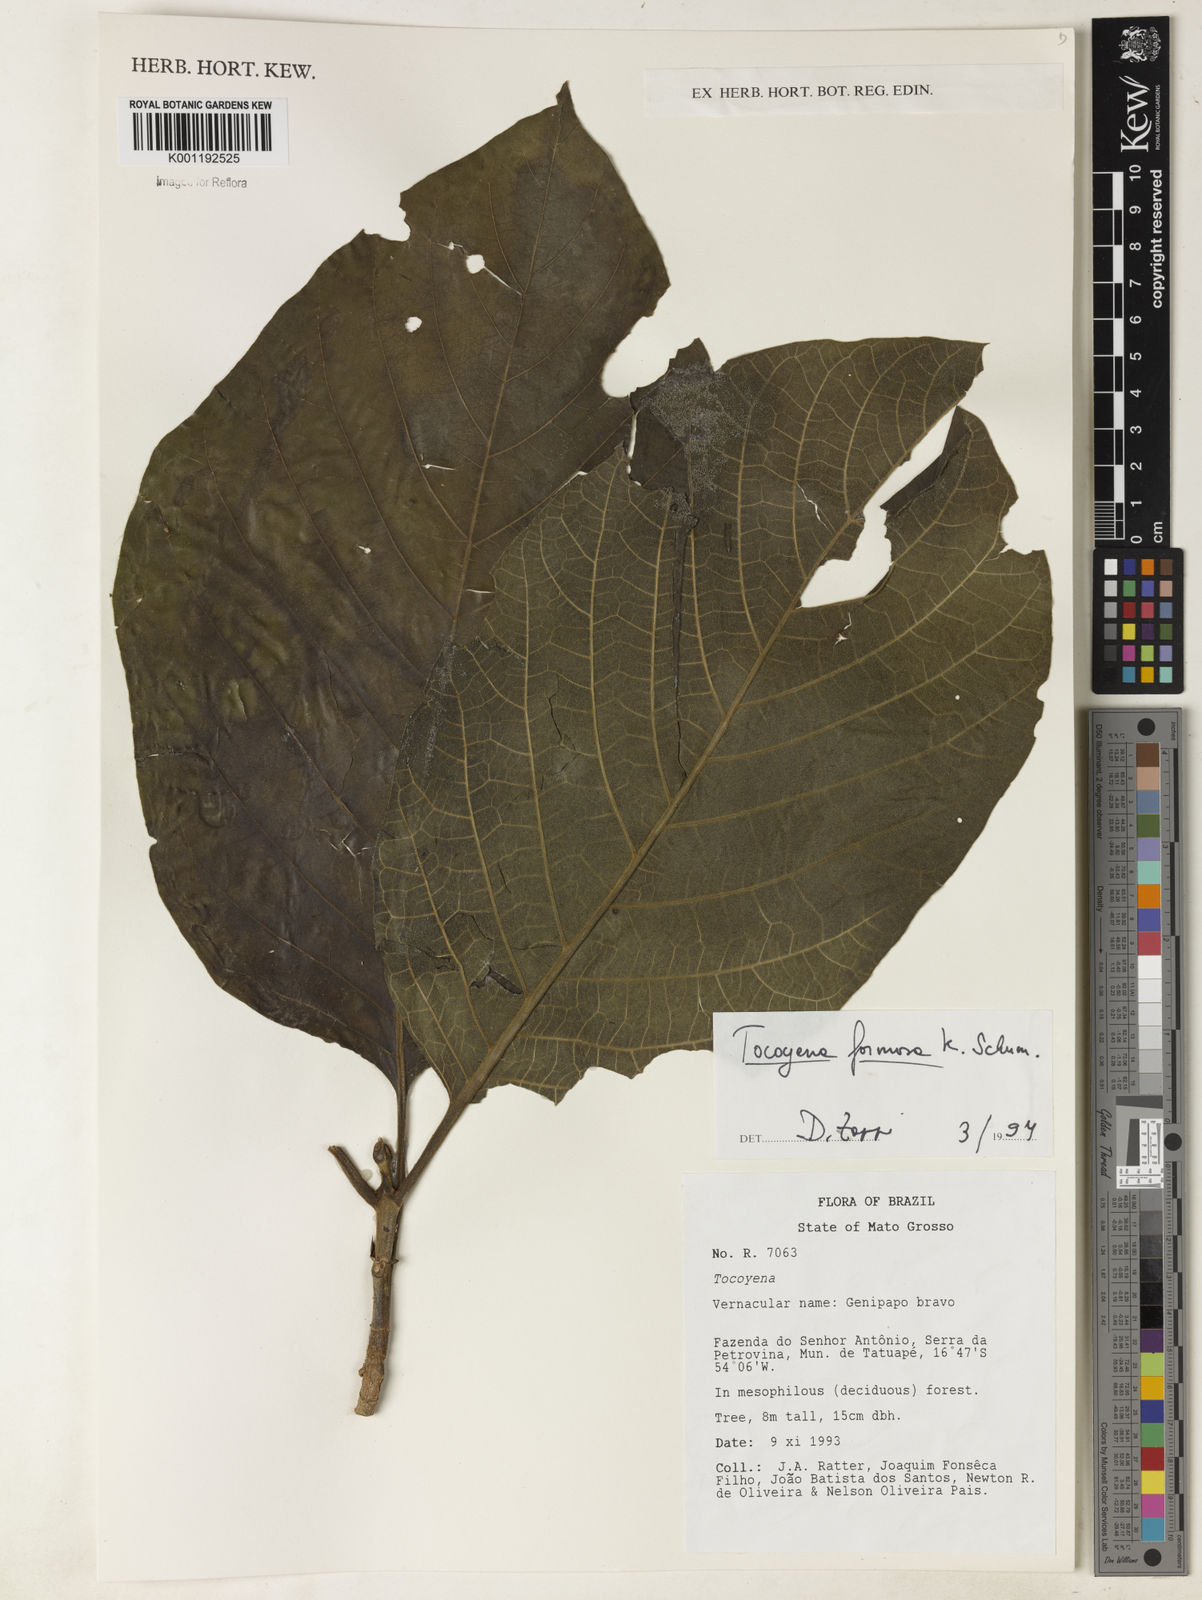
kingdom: Plantae
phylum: Tracheophyta
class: Magnoliopsida
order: Gentianales
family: Rubiaceae
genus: Tocoyena
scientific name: Tocoyena formosa
